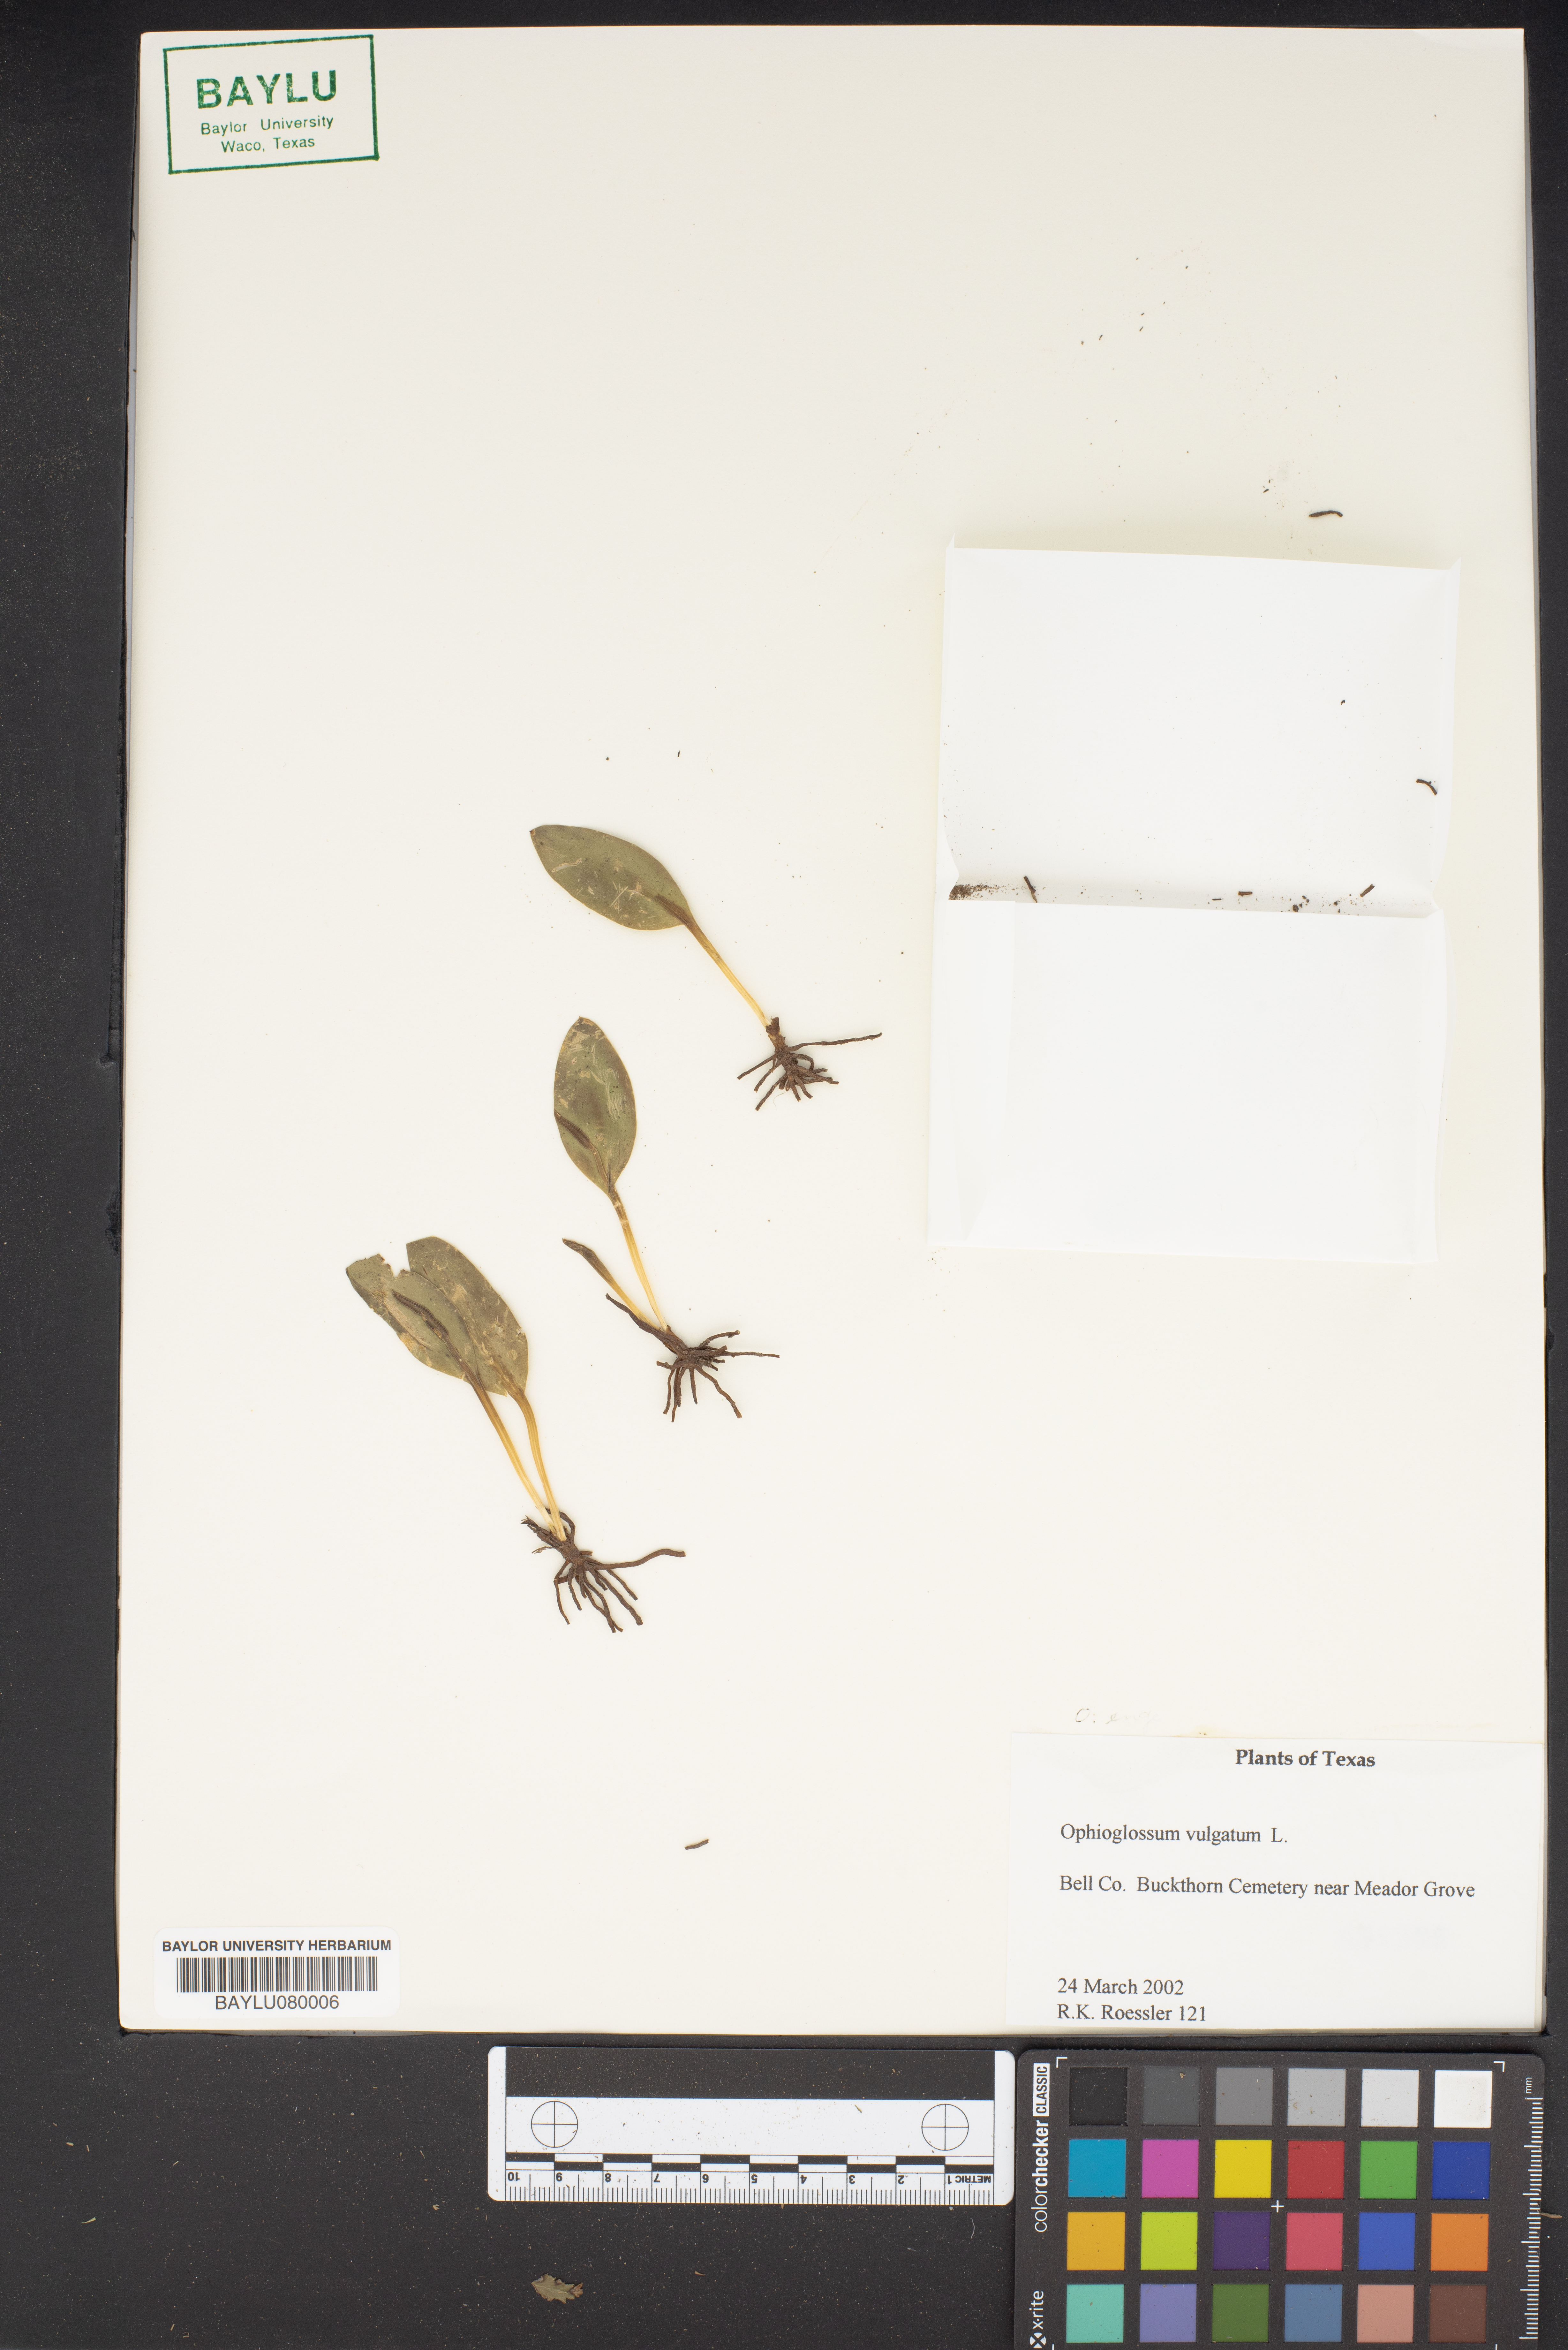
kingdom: Plantae
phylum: Tracheophyta
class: Polypodiopsida
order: Ophioglossales
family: Ophioglossaceae
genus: Ophioglossum
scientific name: Ophioglossum vulgatum
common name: Adder's-tongue
